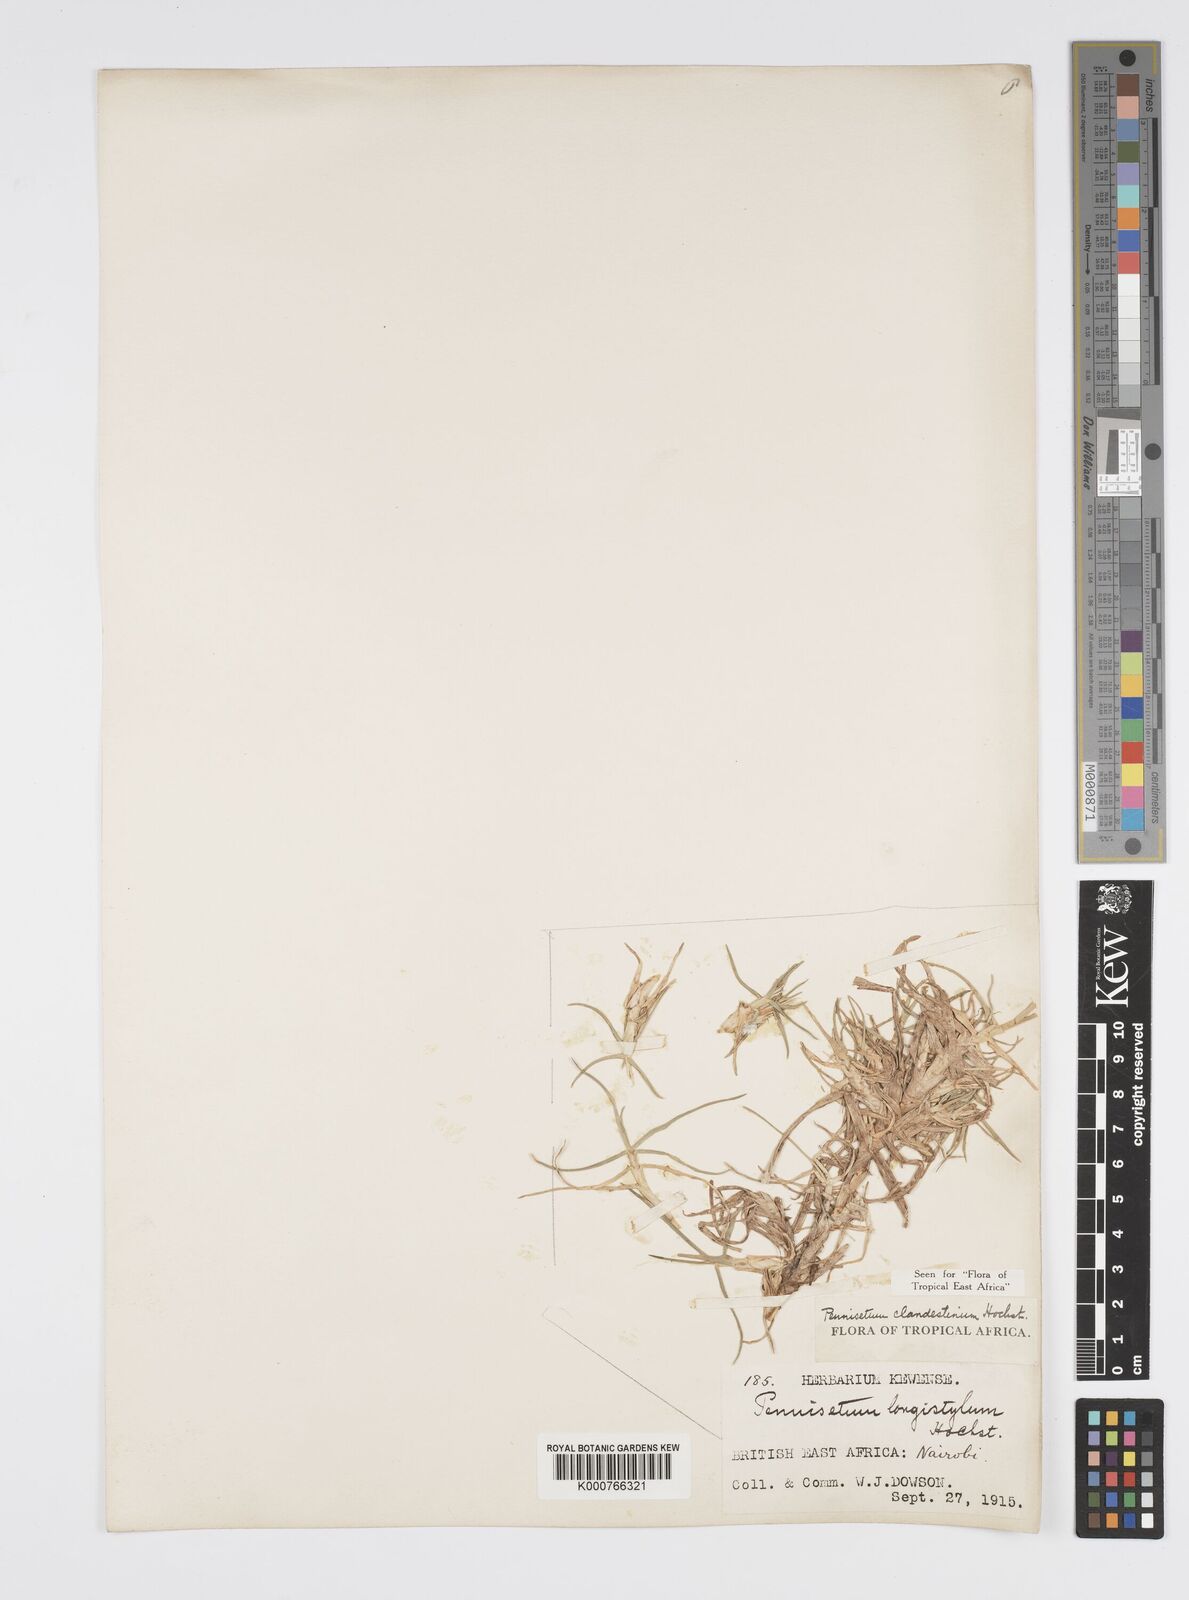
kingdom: Plantae
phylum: Tracheophyta
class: Liliopsida
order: Poales
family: Poaceae
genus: Cenchrus
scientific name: Cenchrus clandestinus
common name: Kikuyugrass
